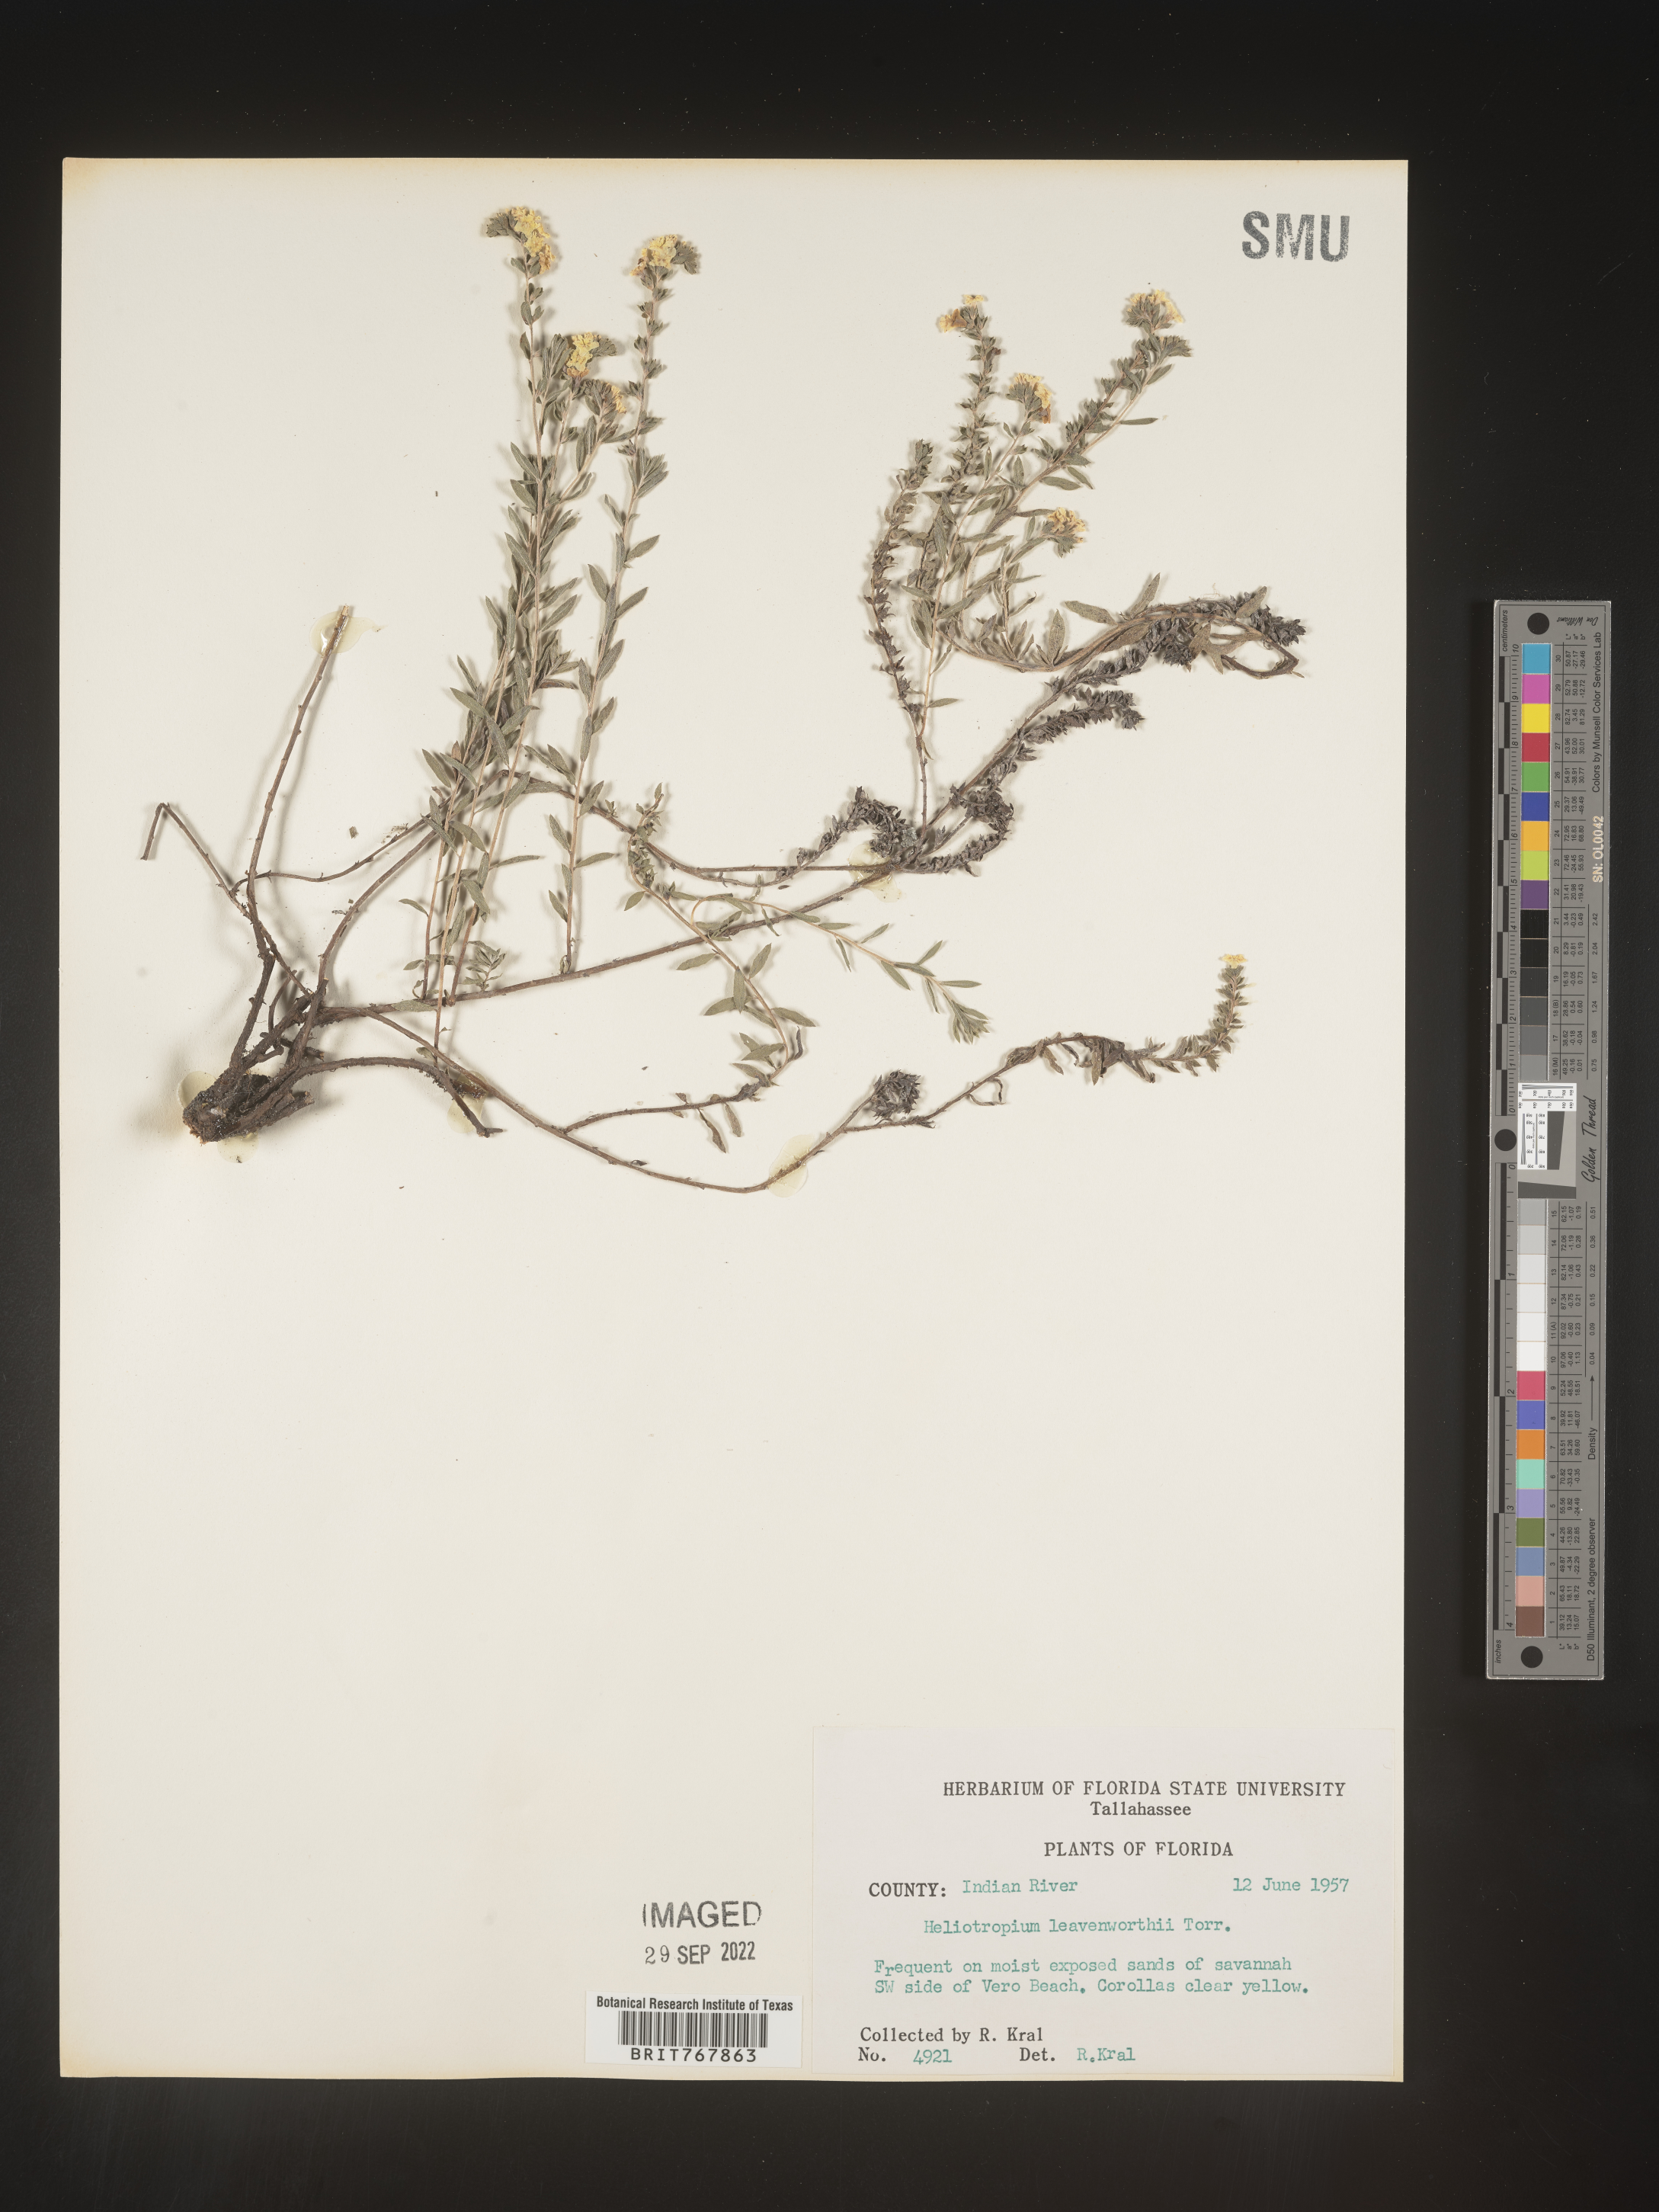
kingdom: Plantae
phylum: Tracheophyta
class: Magnoliopsida
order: Boraginales
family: Heliotropiaceae
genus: Heliotropium
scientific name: Heliotropium leavenworthii
